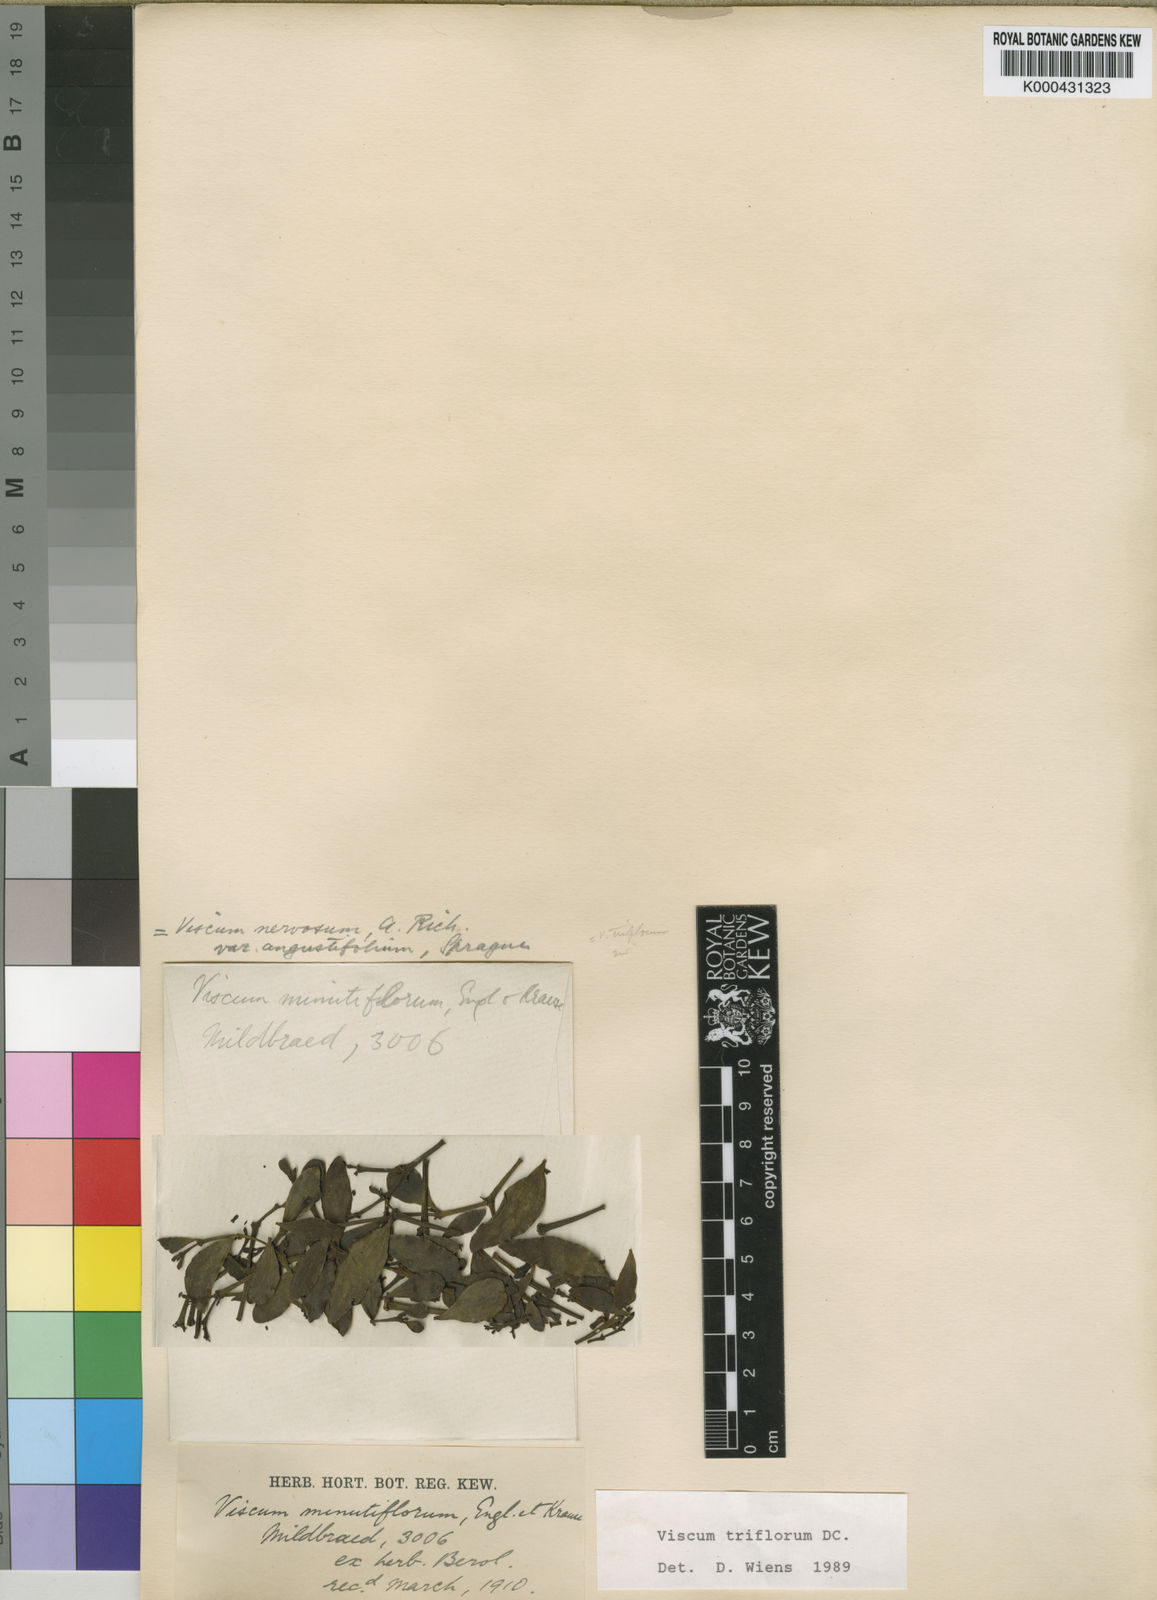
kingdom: Plantae
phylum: Tracheophyta
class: Magnoliopsida
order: Santalales
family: Viscaceae
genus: Viscum
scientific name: Viscum triflorum
